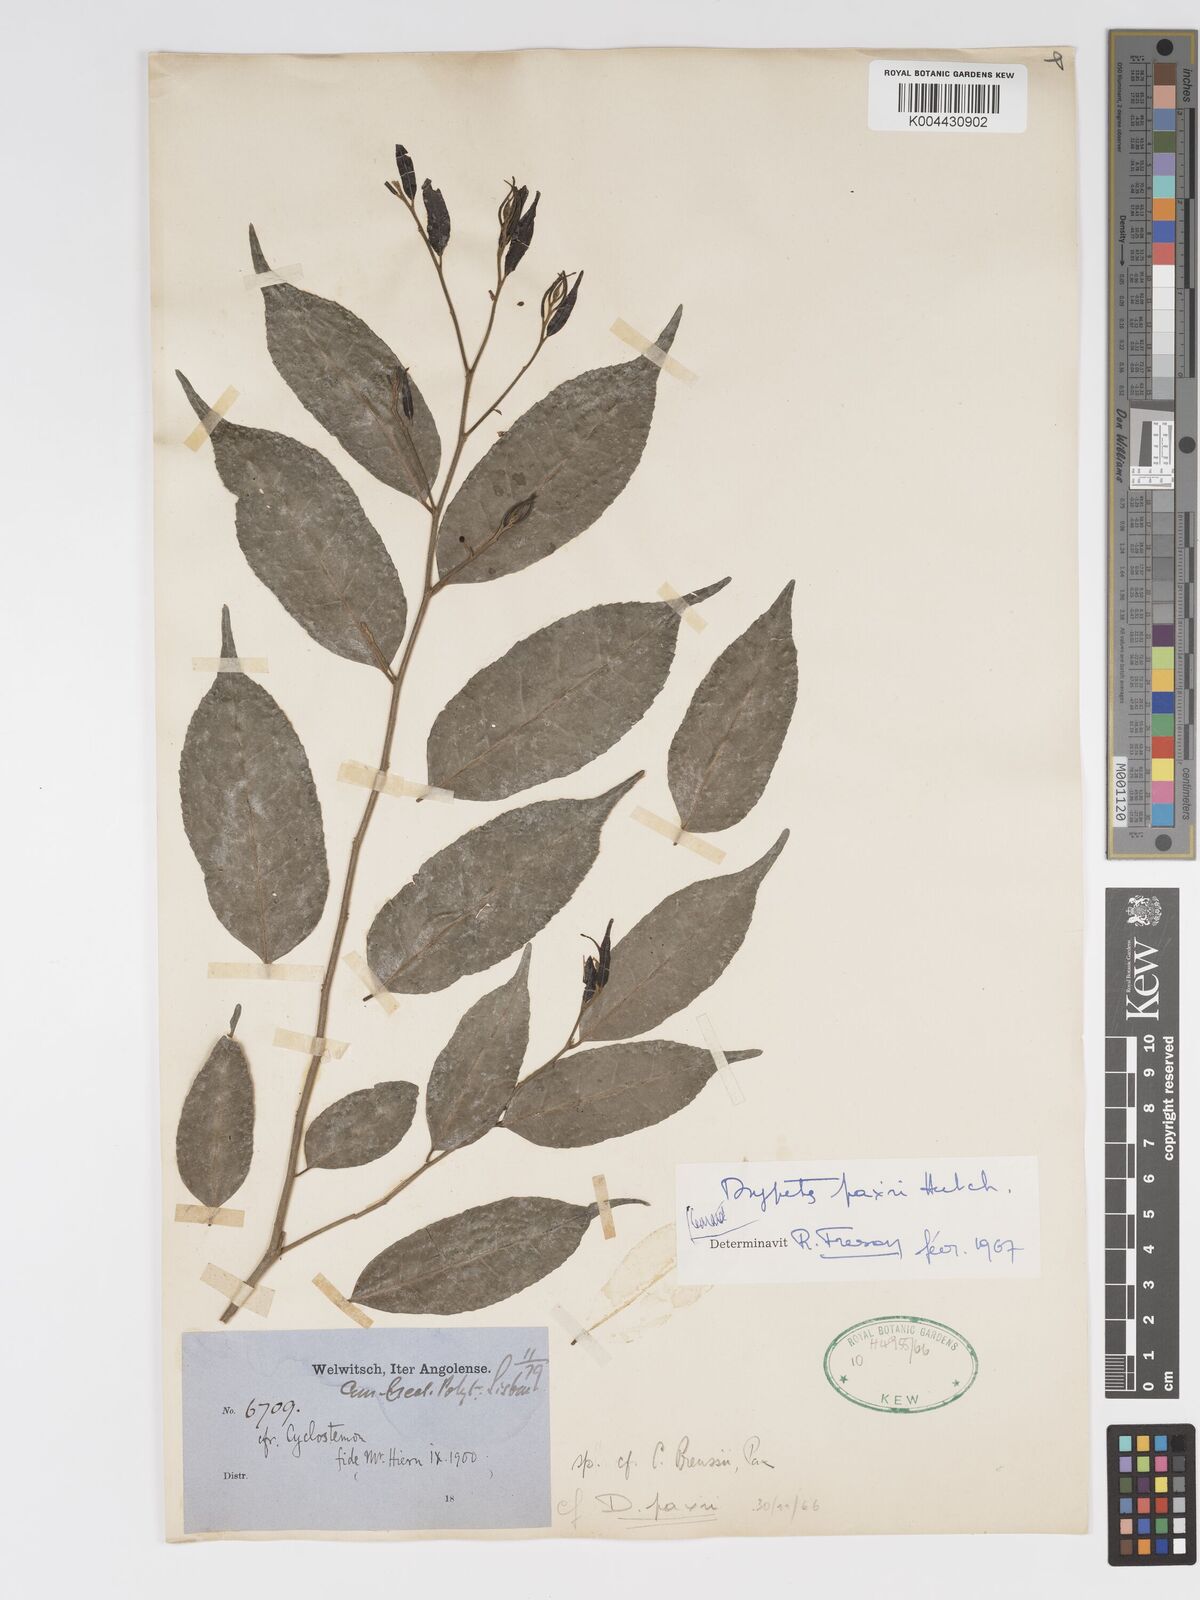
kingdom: Plantae
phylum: Tracheophyta
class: Magnoliopsida
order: Malpighiales
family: Putranjivaceae
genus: Drypetes
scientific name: Drypetes paxii
